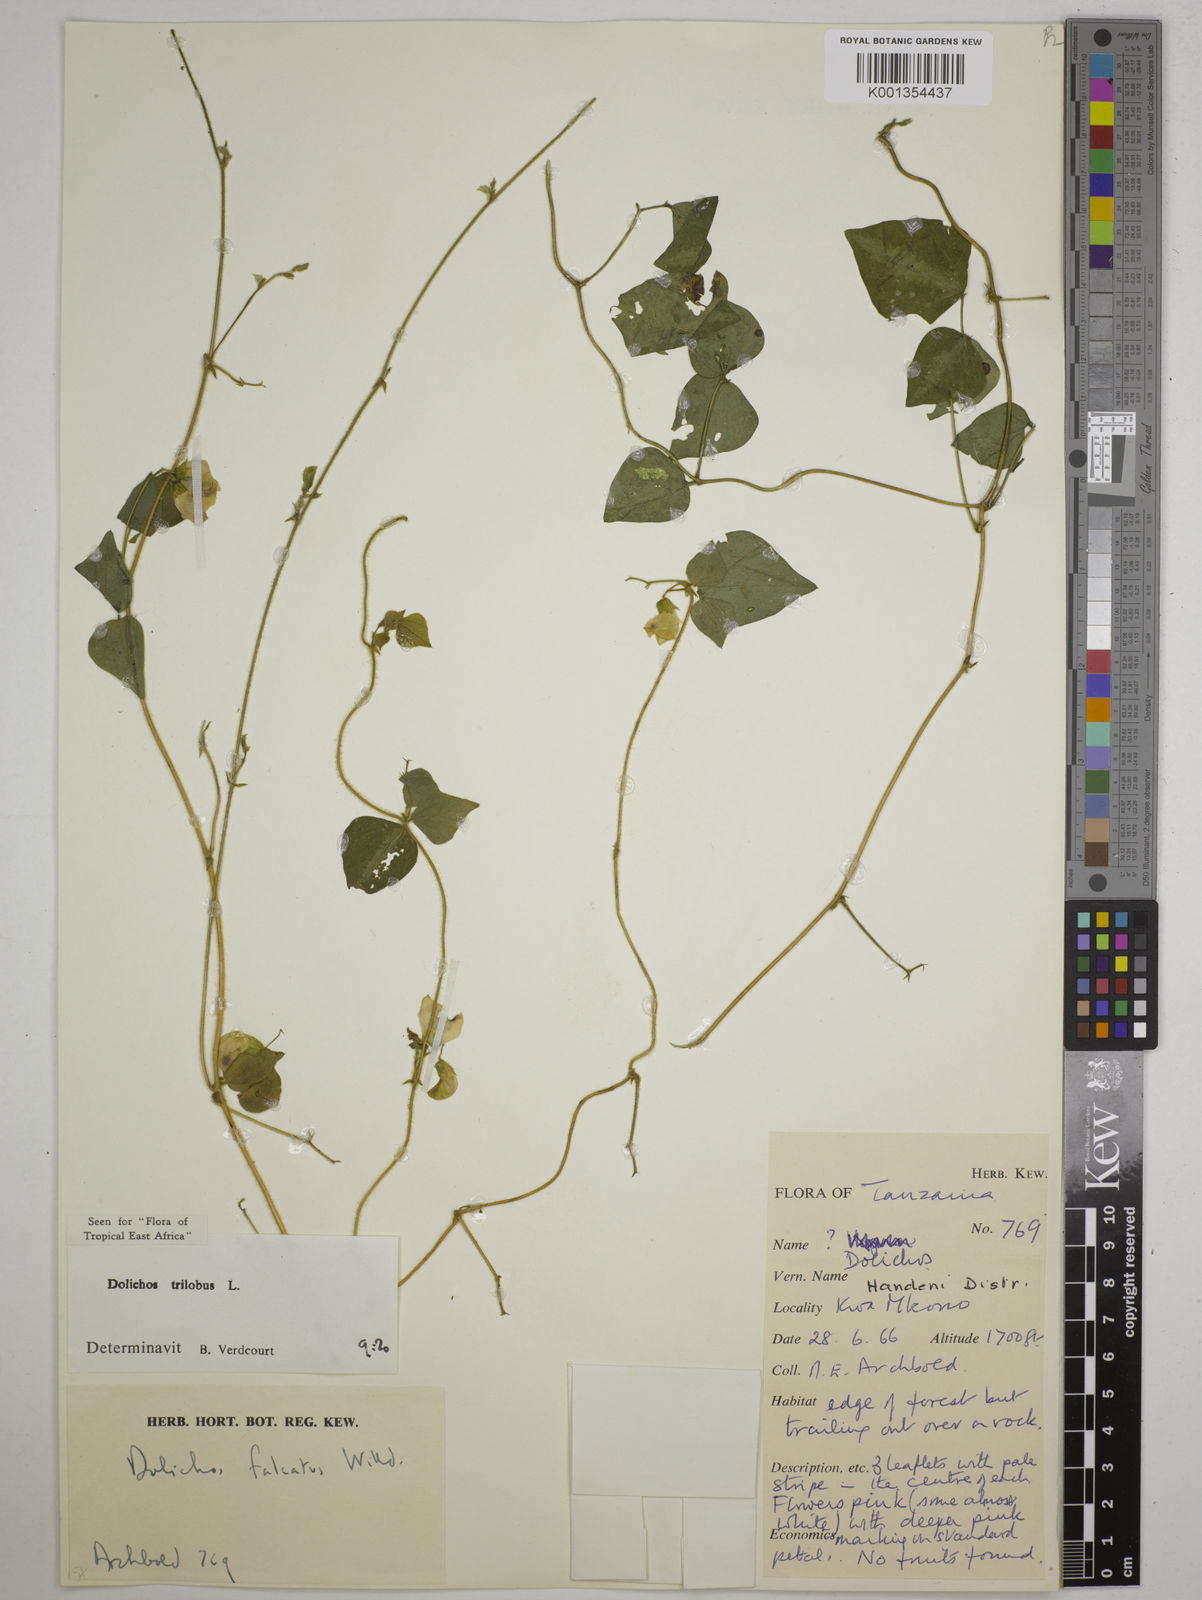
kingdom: Plantae
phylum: Tracheophyta
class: Magnoliopsida
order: Fabales
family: Fabaceae
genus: Dolichos
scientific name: Dolichos
